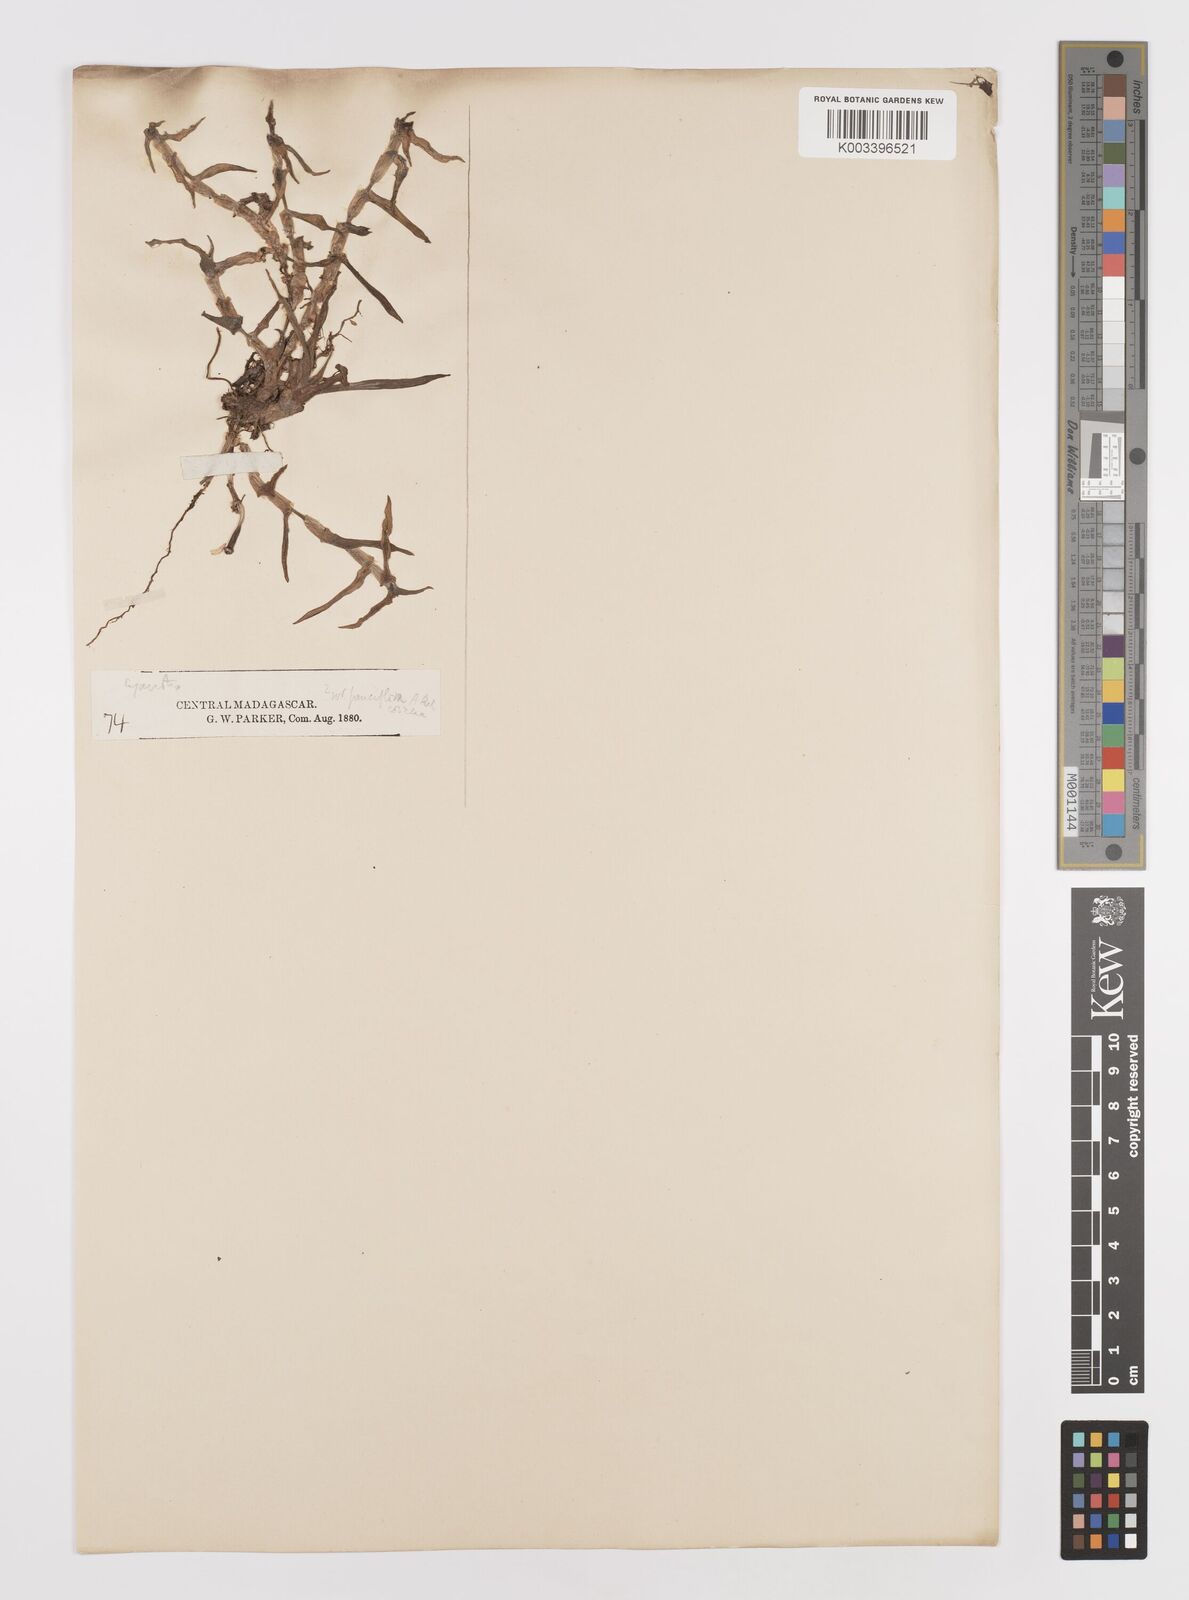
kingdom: Plantae
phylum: Tracheophyta
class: Liliopsida
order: Commelinales
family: Commelinaceae
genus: Cyanotis
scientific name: Cyanotis
